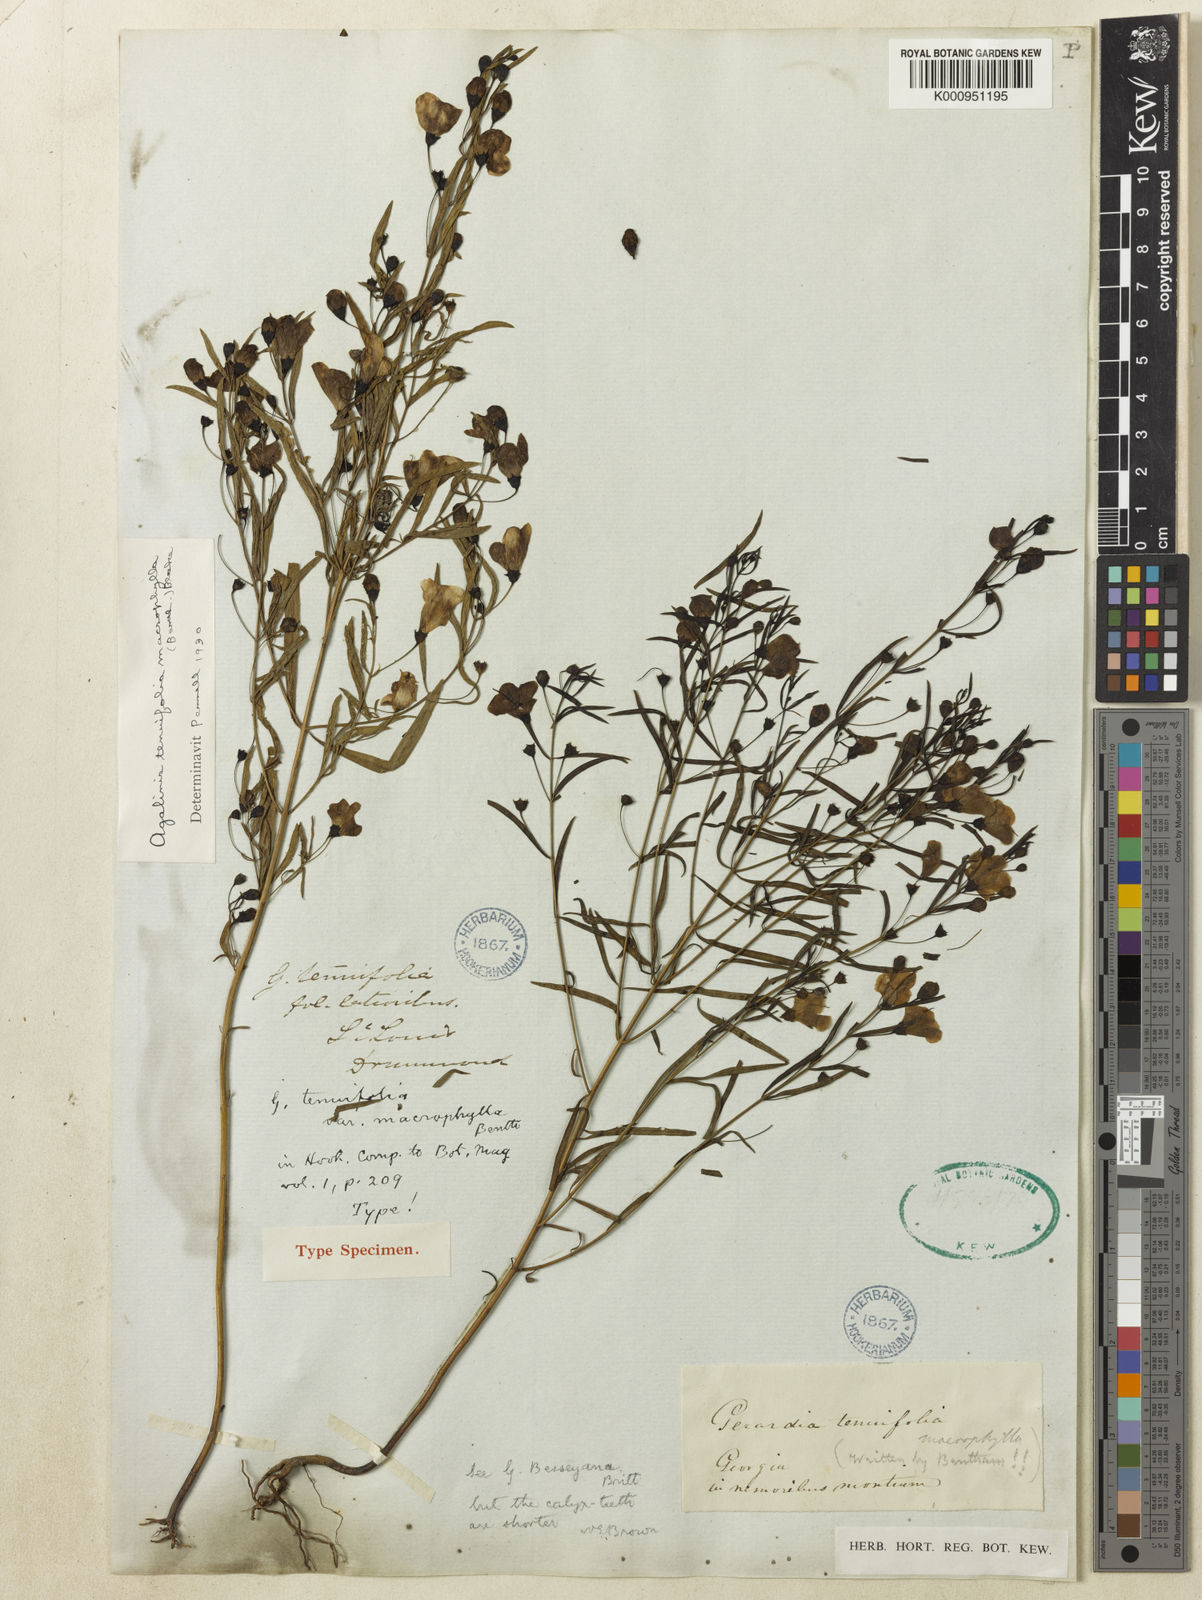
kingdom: Plantae
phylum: Tracheophyta
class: Magnoliopsida
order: Lamiales
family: Orobanchaceae
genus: Agalinis
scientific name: Agalinis tenuifolia
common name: Slender agalinis
